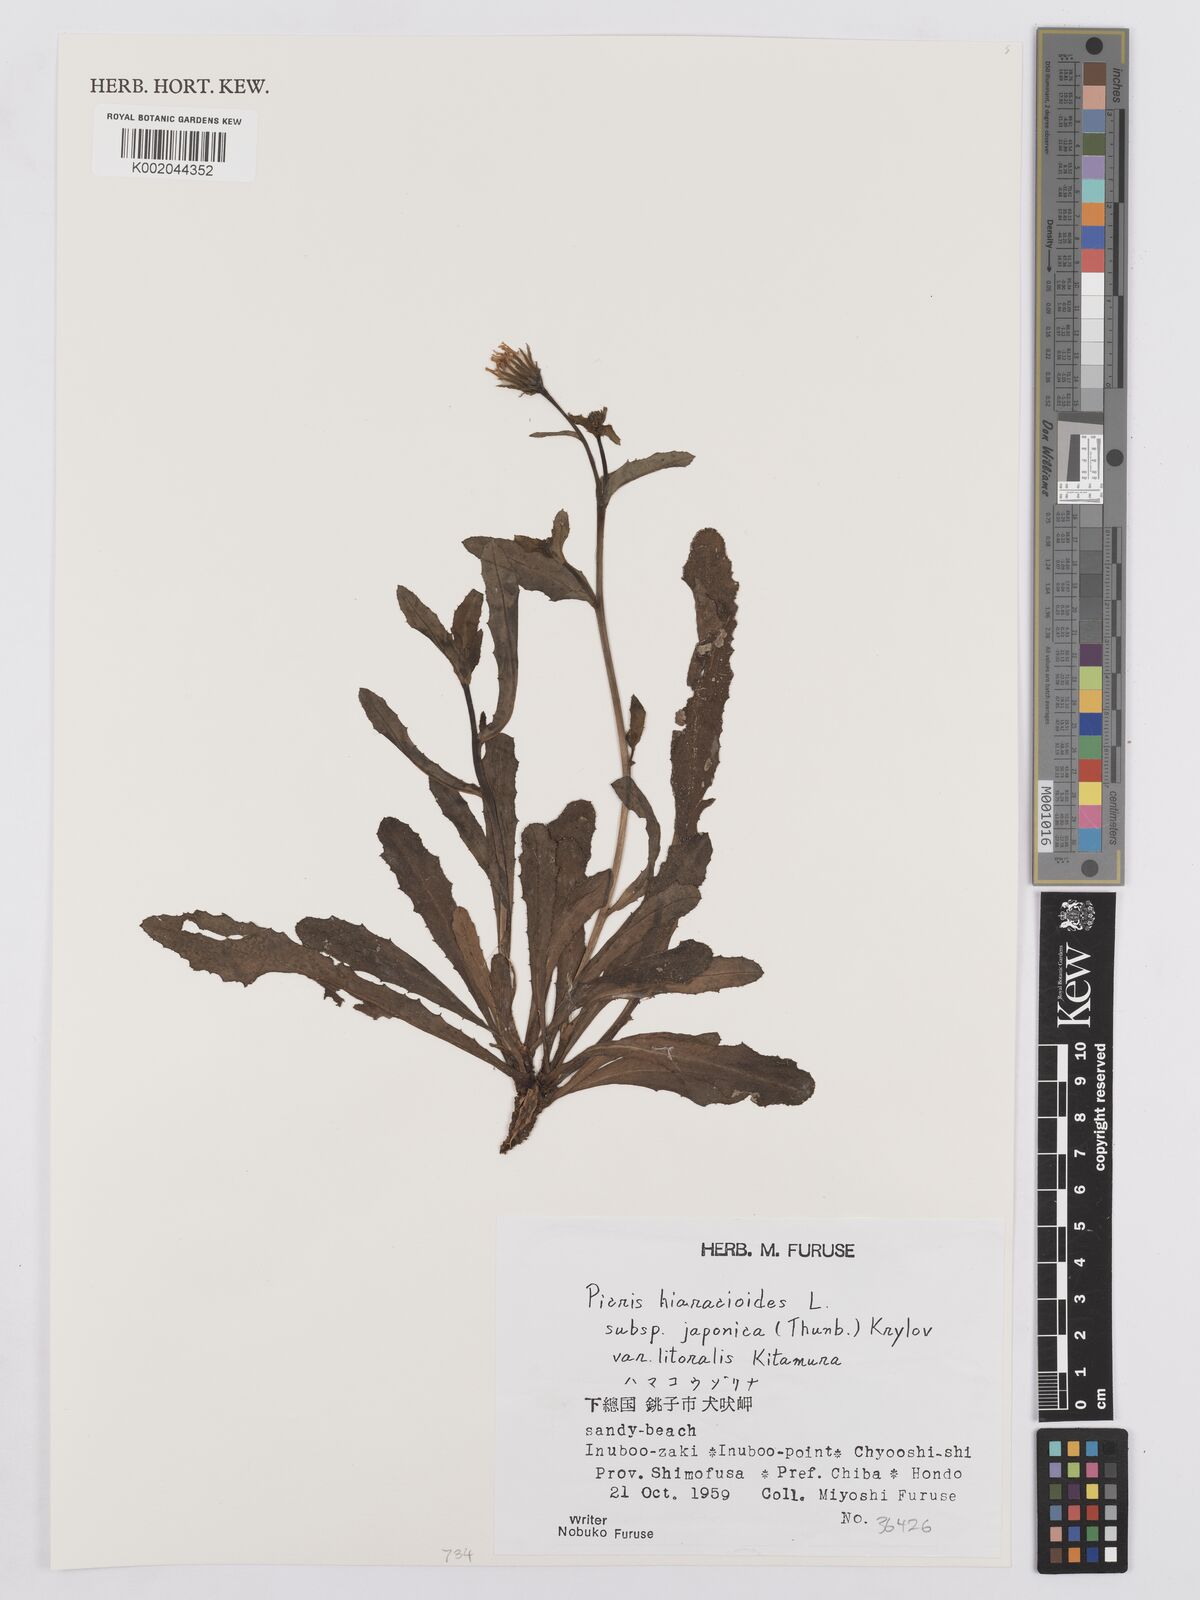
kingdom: Plantae
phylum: Tracheophyta
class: Magnoliopsida
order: Asterales
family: Asteraceae
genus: Picris
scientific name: Picris hieracioides
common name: Hawkweed oxtongue
